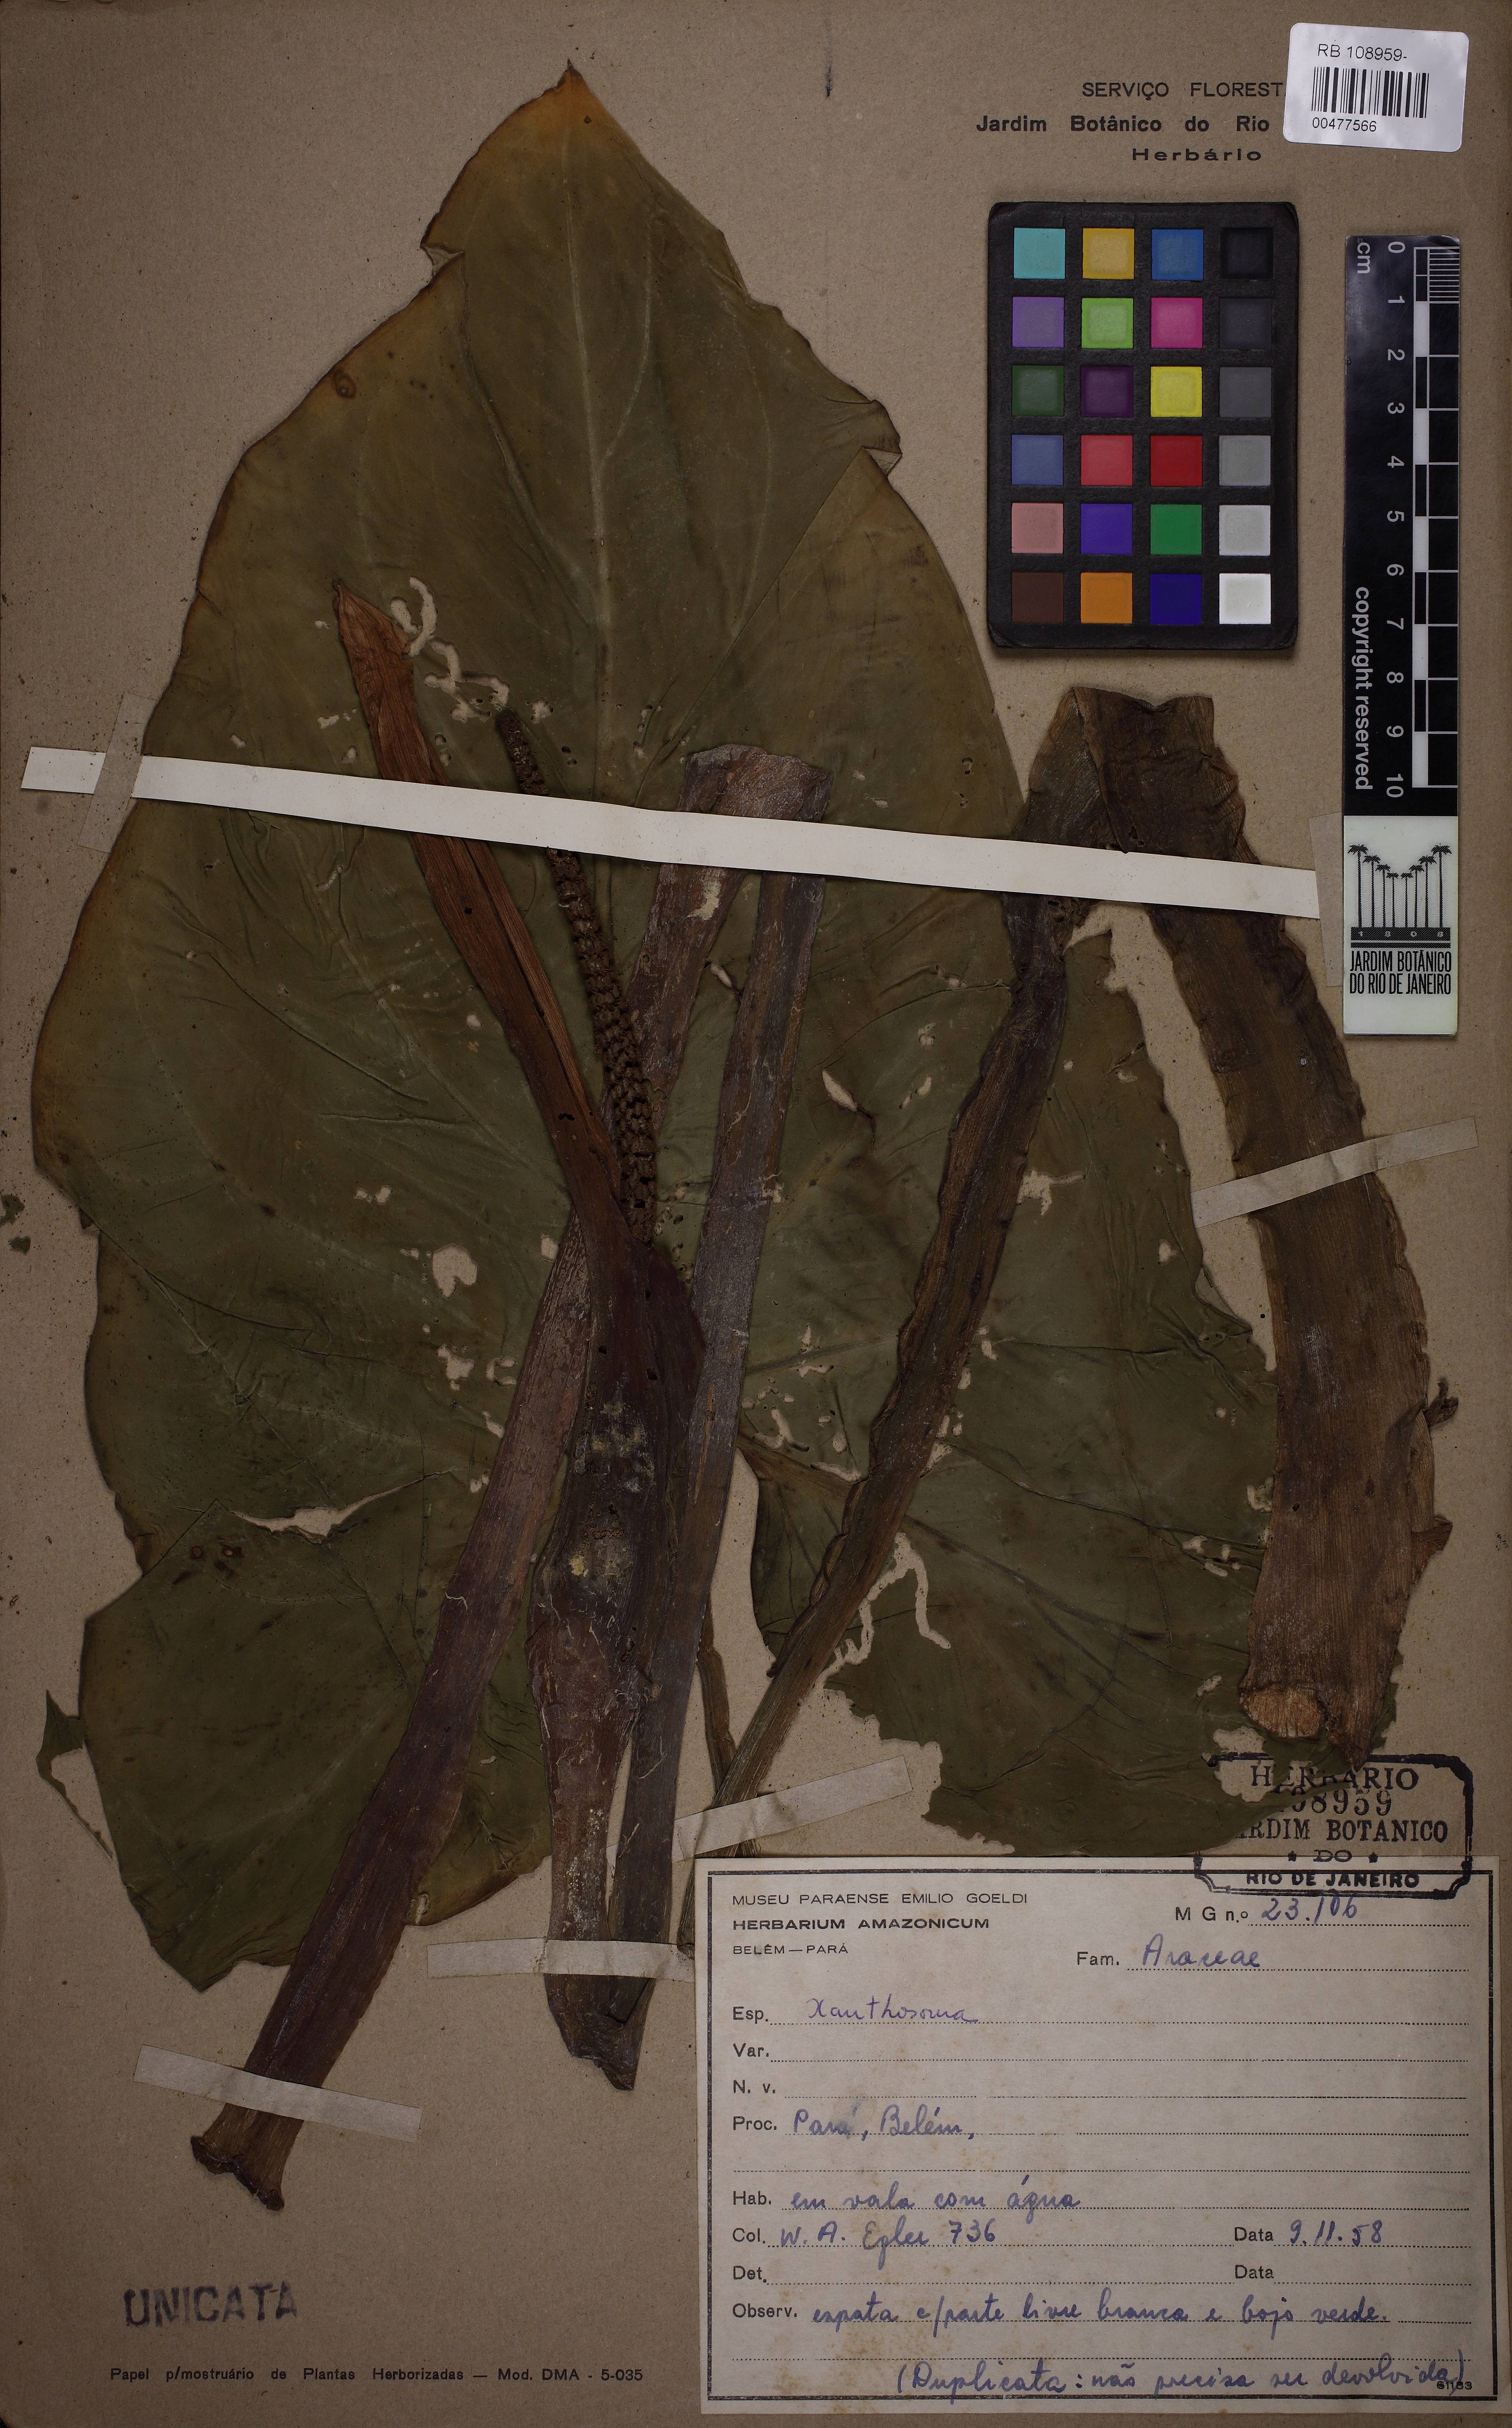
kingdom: Plantae
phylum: Tracheophyta
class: Liliopsida
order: Alismatales
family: Araceae
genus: Xanthosoma
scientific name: Xanthosoma
